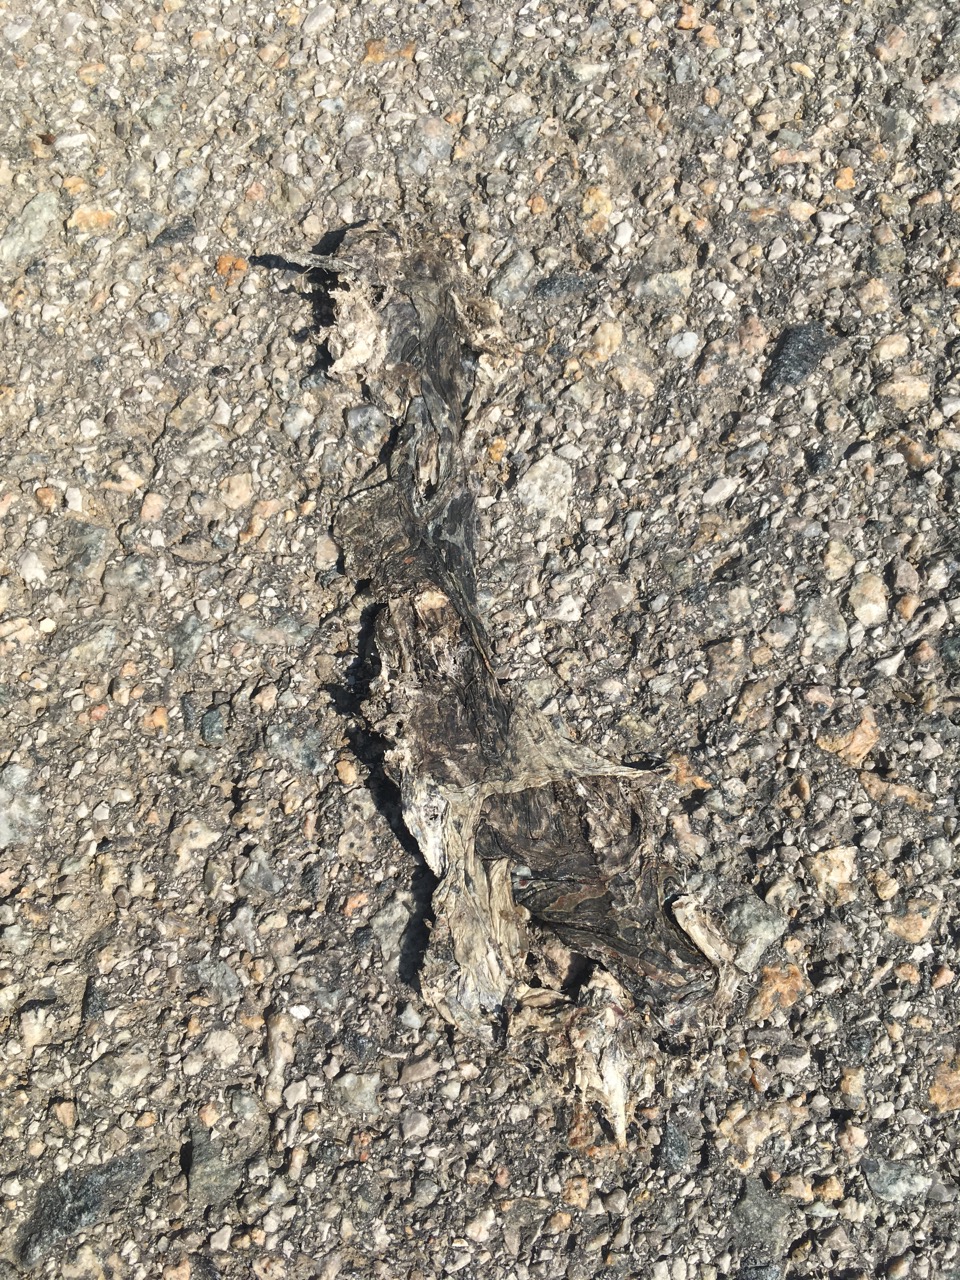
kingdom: Animalia
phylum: Chordata
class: Amphibia
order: Anura
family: Bufonidae
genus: Bufotes
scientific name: Bufotes viridis
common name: European green toad
